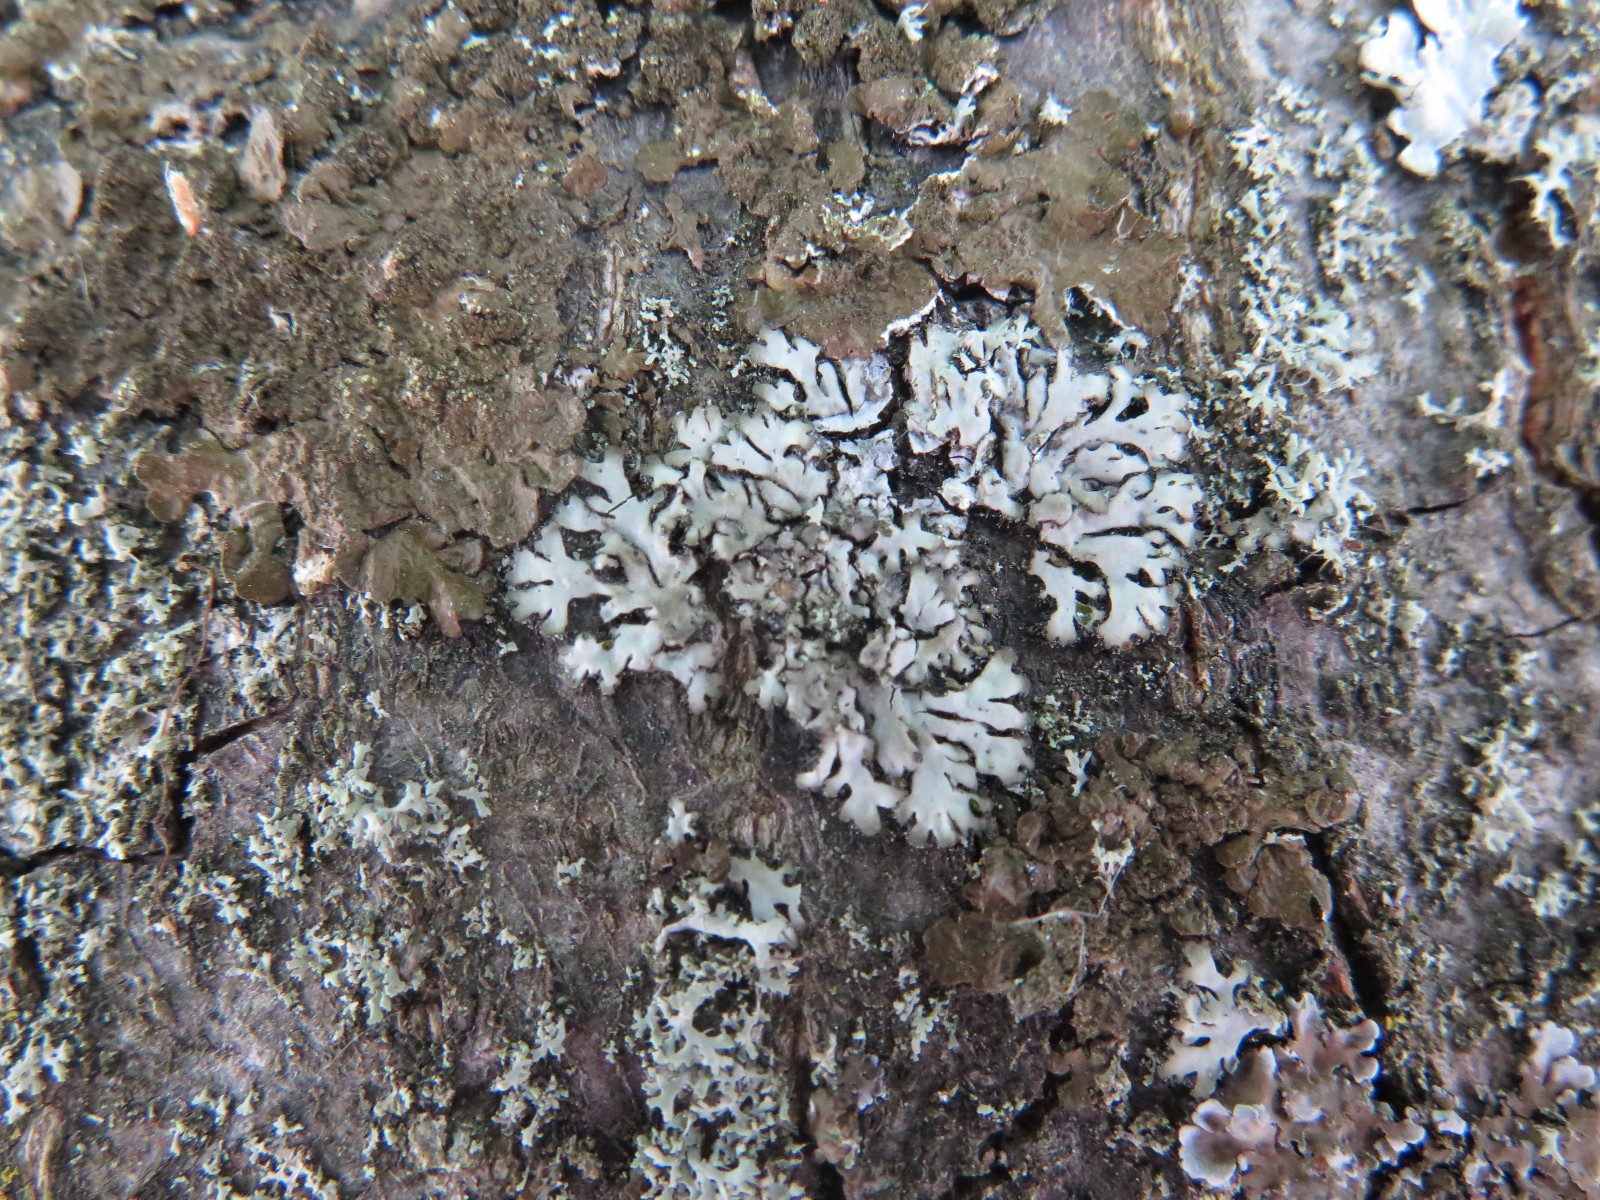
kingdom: Fungi
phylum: Ascomycota
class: Lecanoromycetes
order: Caliciales
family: Physciaceae
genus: Phaeophyscia
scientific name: Phaeophyscia orbicularis
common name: grågrøn rosetlav
